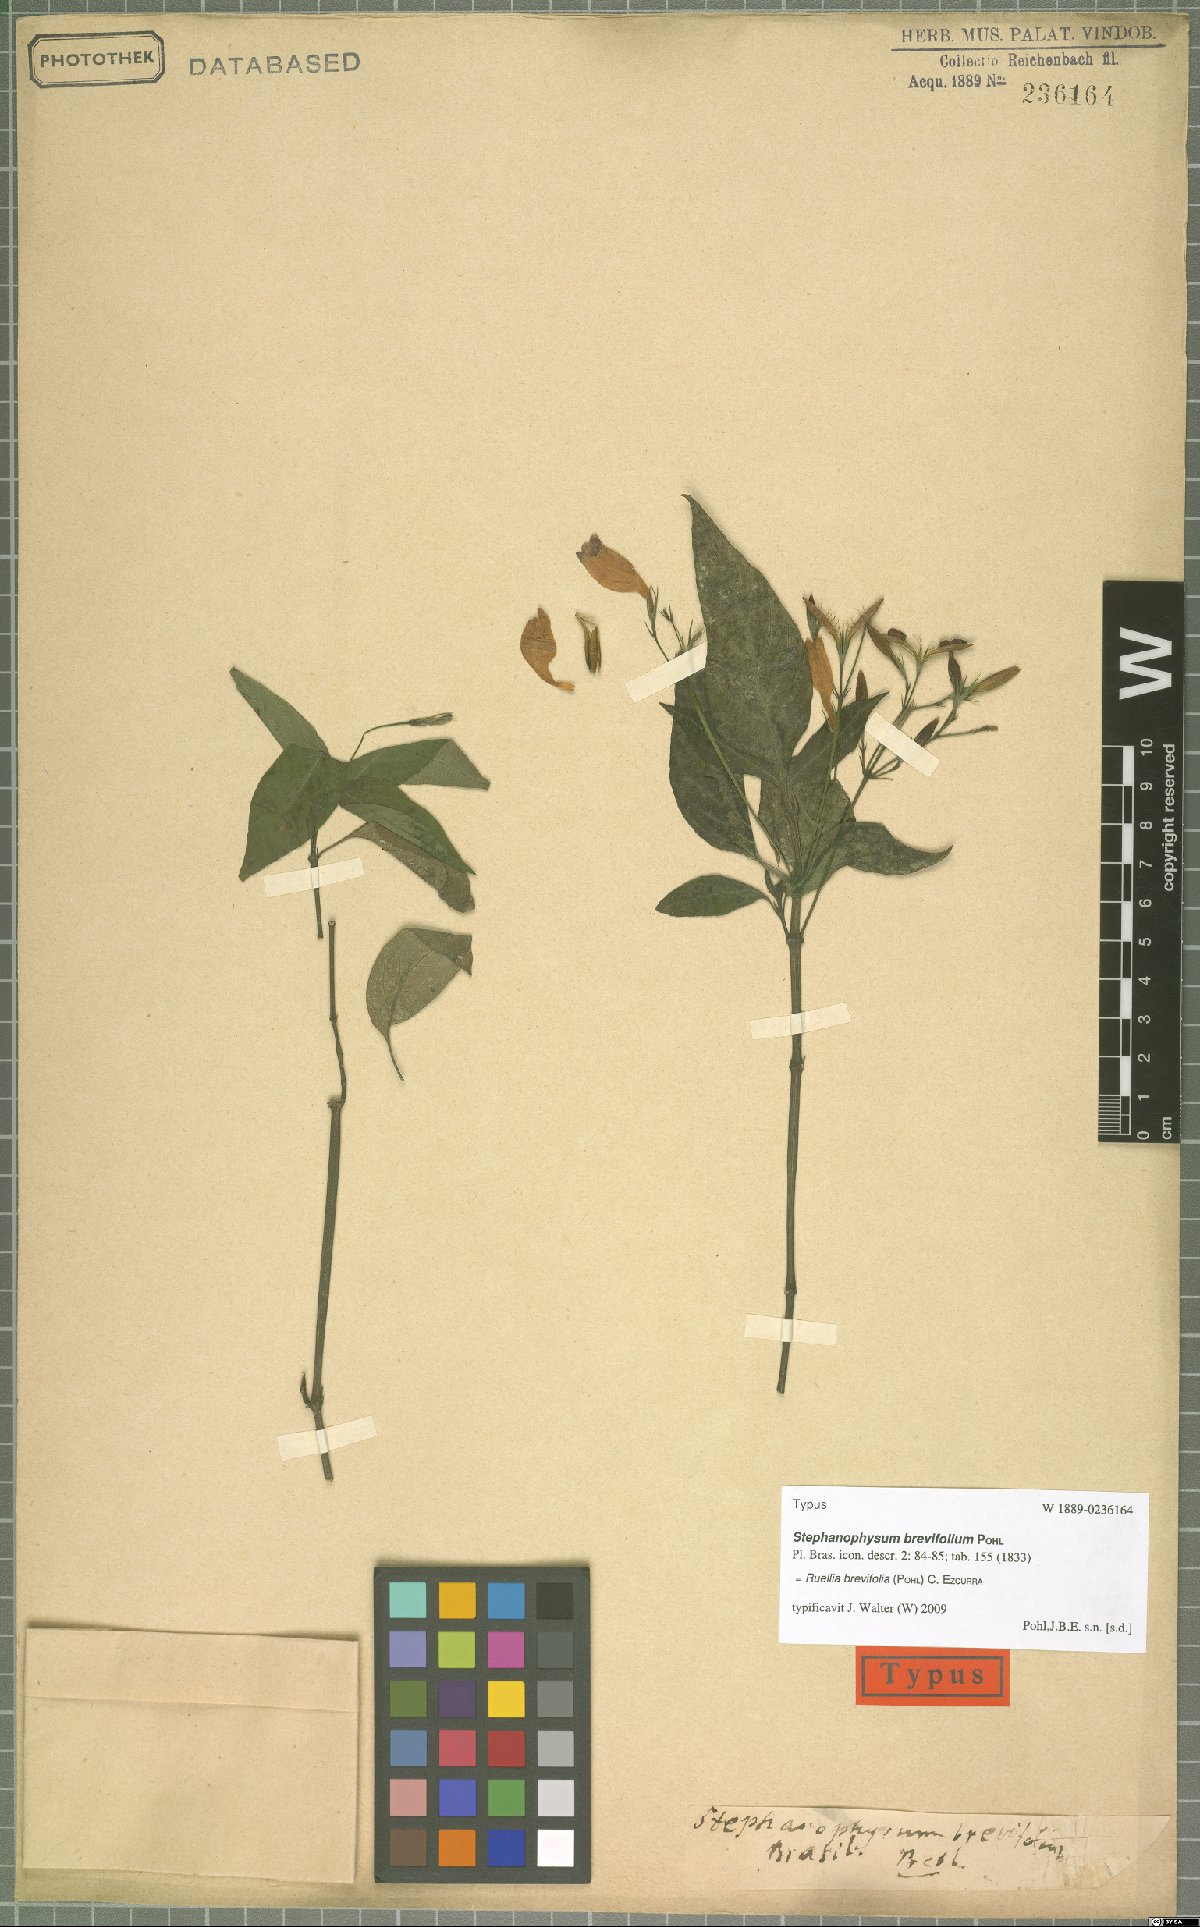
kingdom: Plantae
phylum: Tracheophyta
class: Magnoliopsida
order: Lamiales
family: Acanthaceae
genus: Ruellia
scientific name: Ruellia brevifolia
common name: Tropical wild petunia
